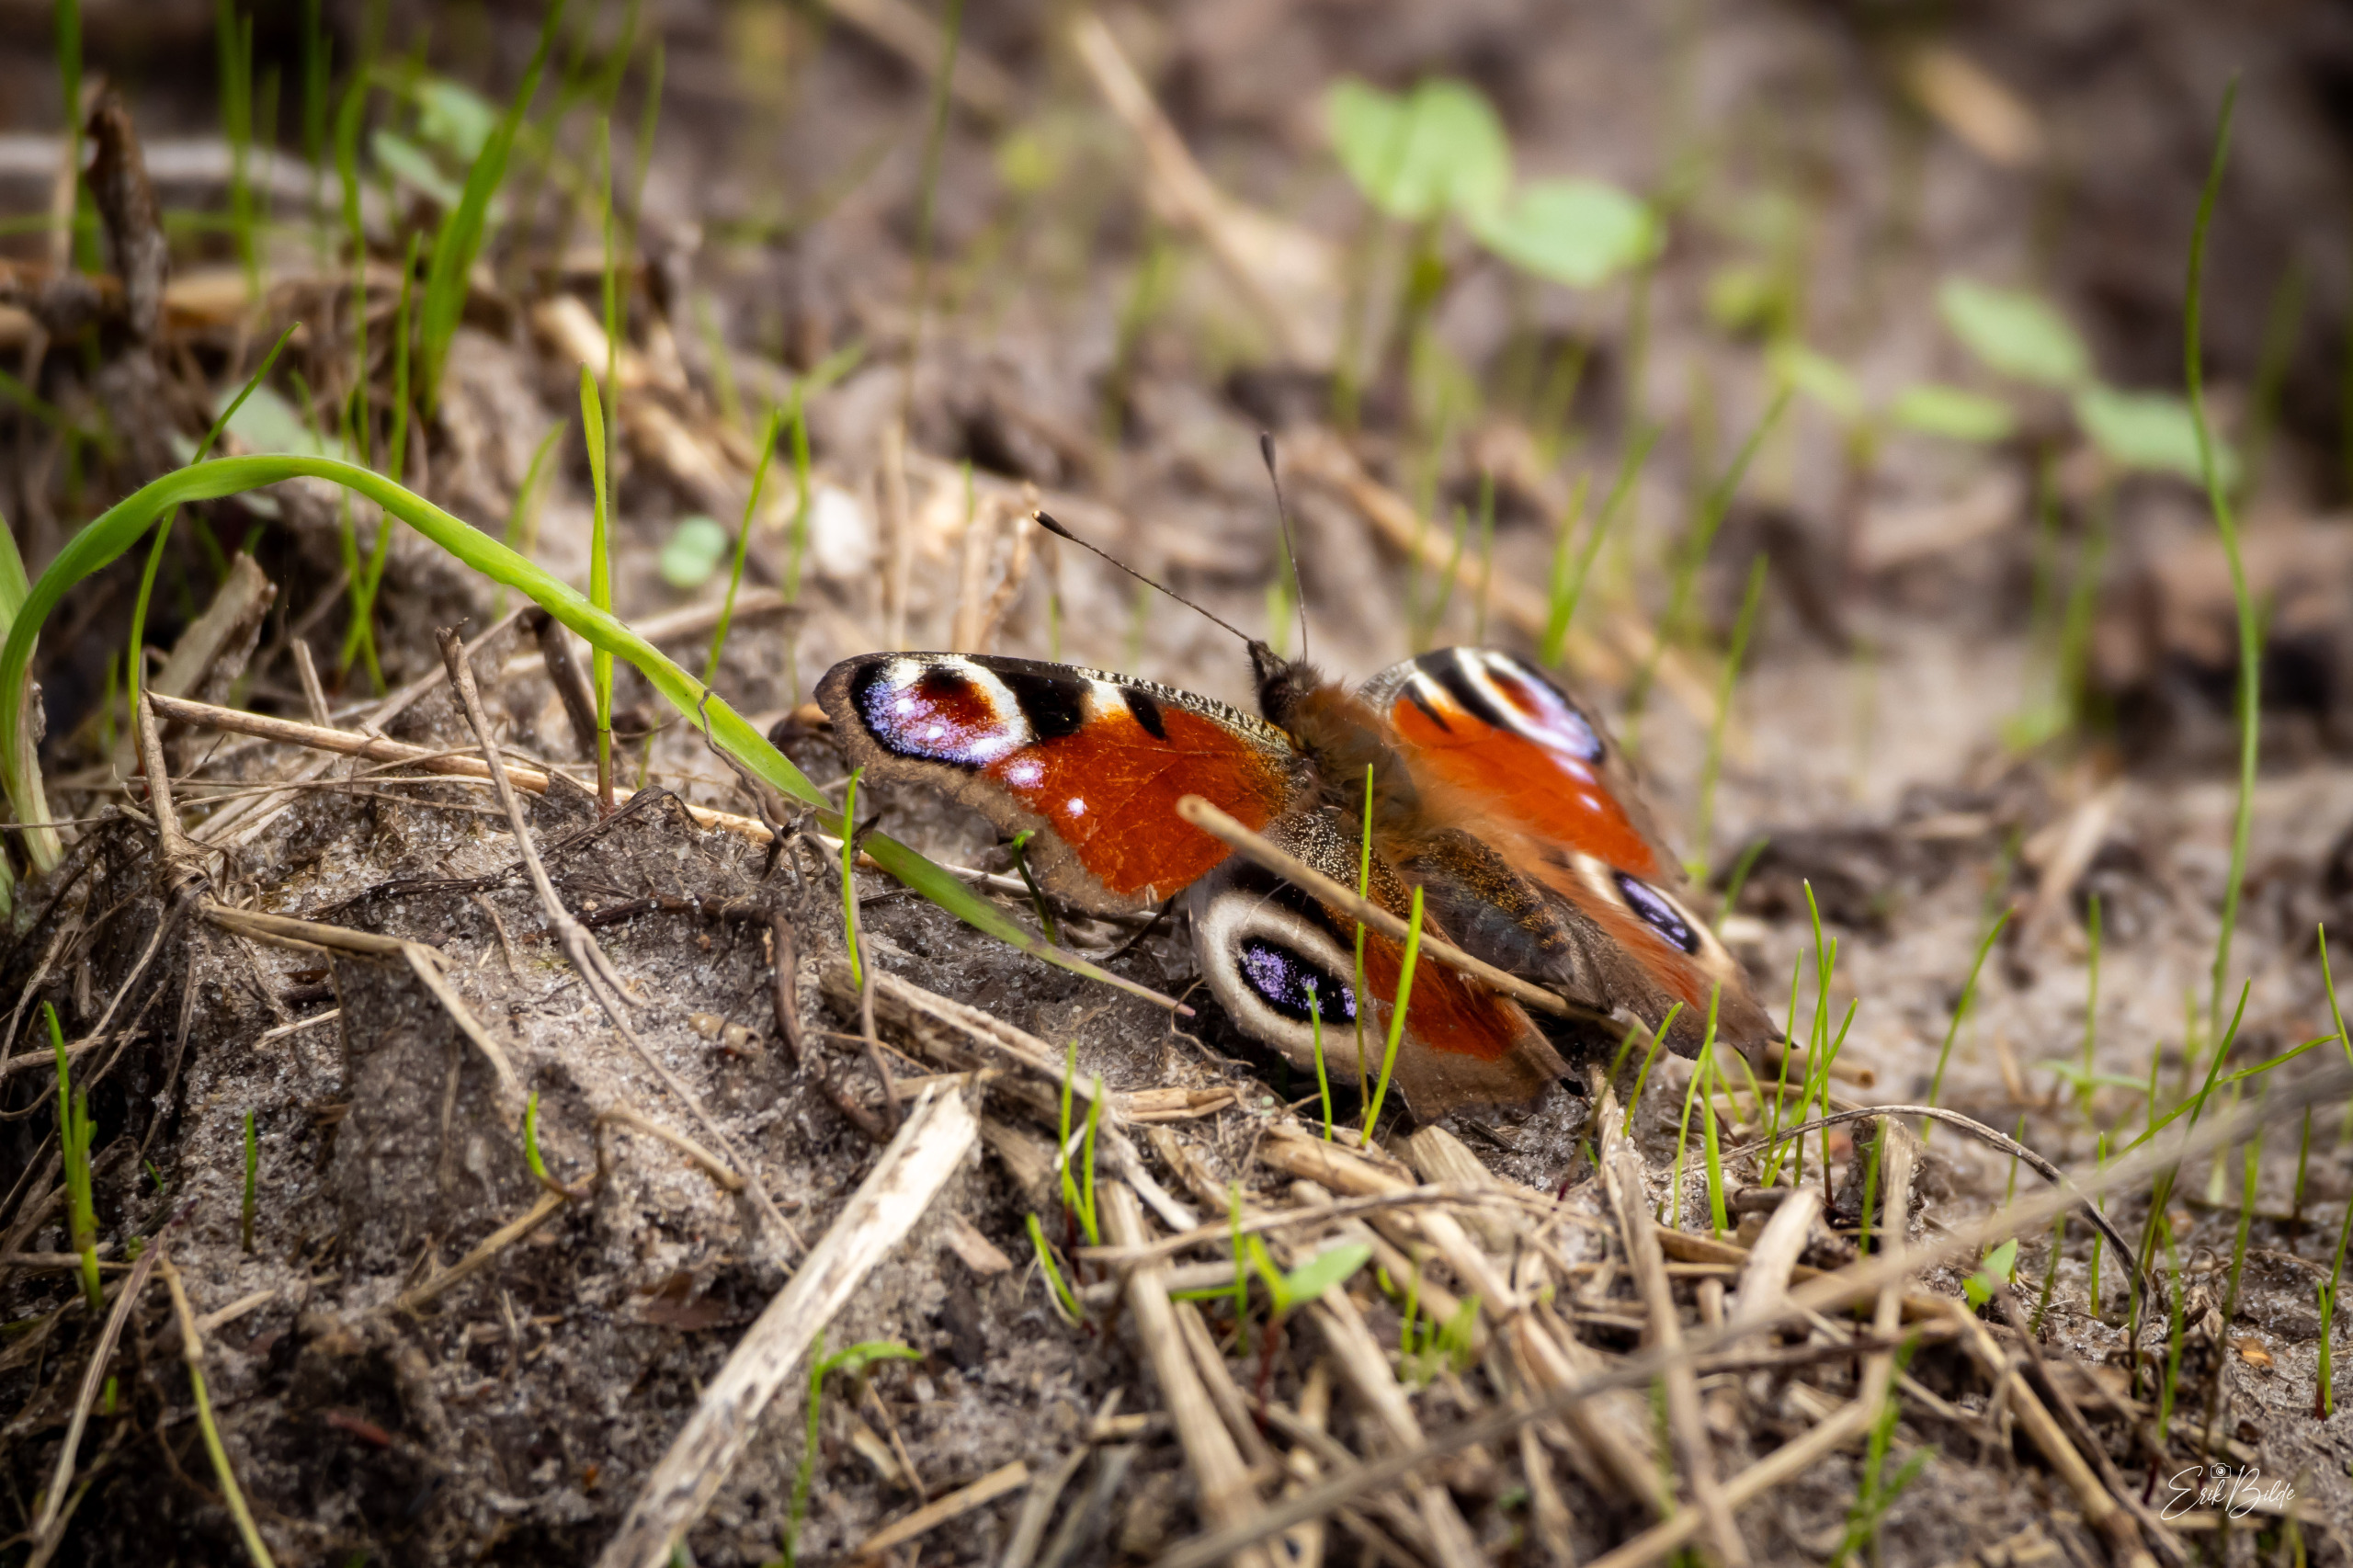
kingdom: Animalia
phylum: Arthropoda
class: Insecta
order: Lepidoptera
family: Nymphalidae
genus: Aglais
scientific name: Aglais io
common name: Dagpåfugleøje
